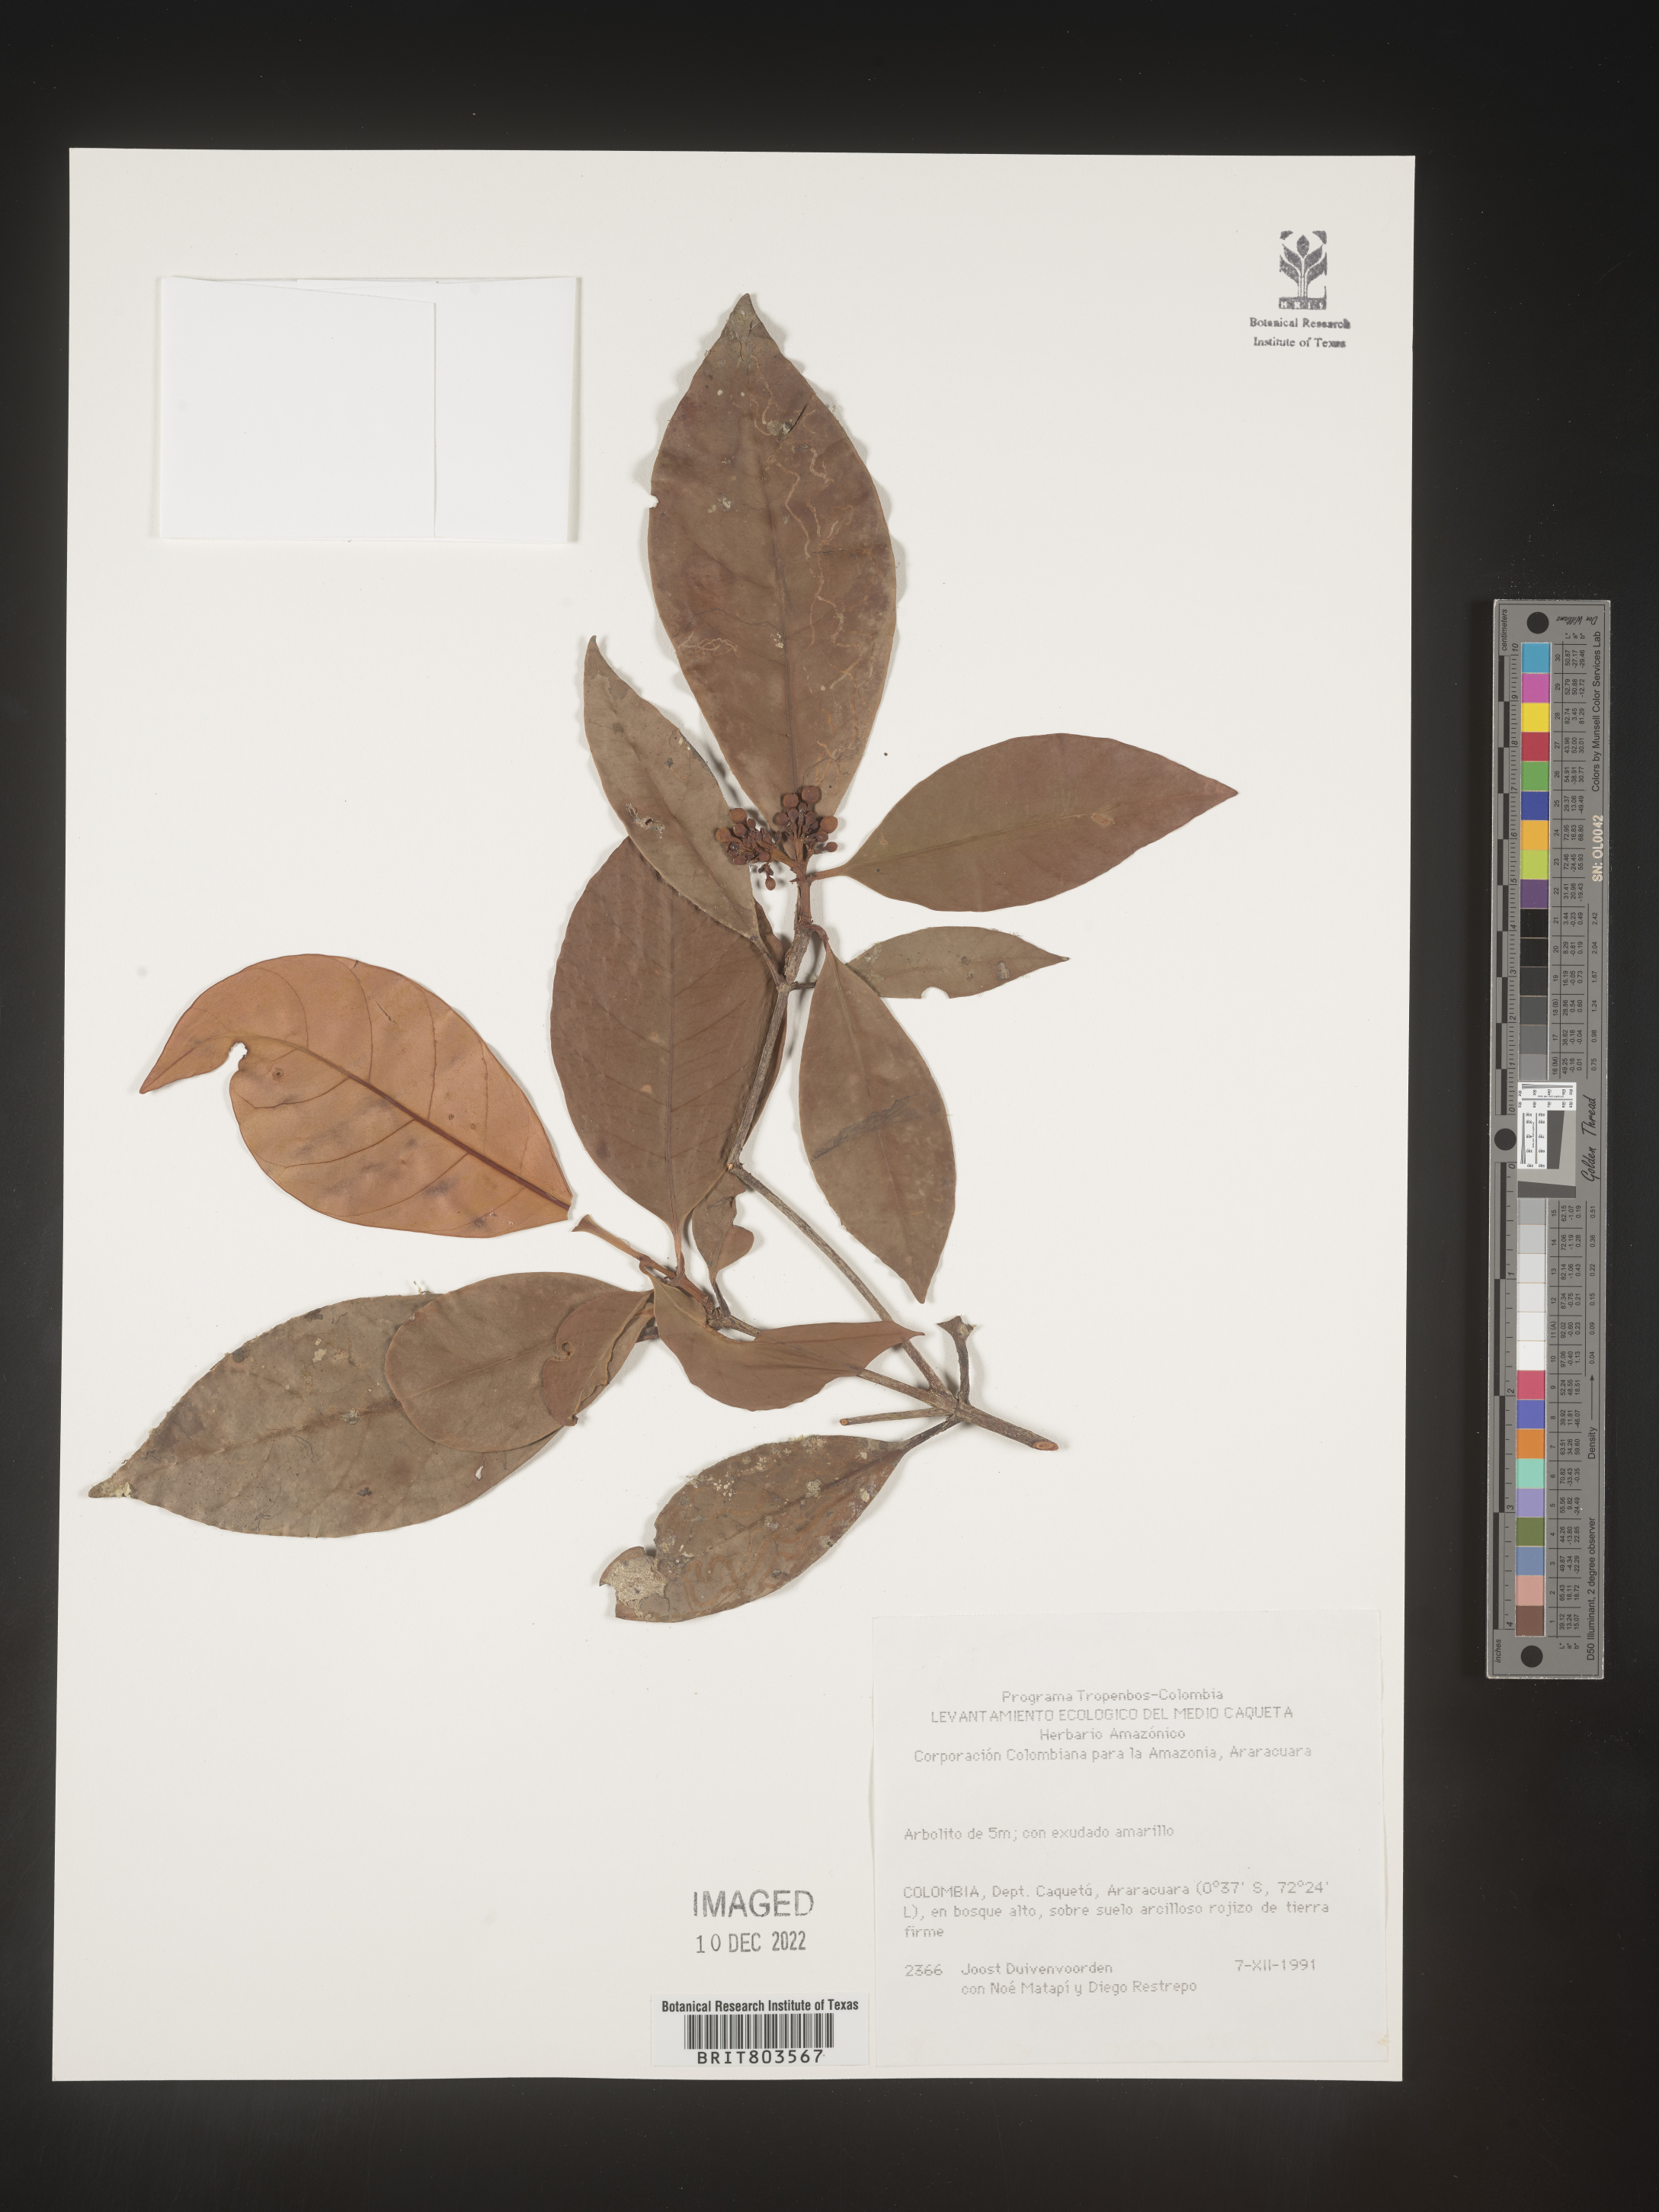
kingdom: Plantae
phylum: Tracheophyta
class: Magnoliopsida
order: Malpighiales
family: Clusiaceae
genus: Tovomita
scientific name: Tovomita
